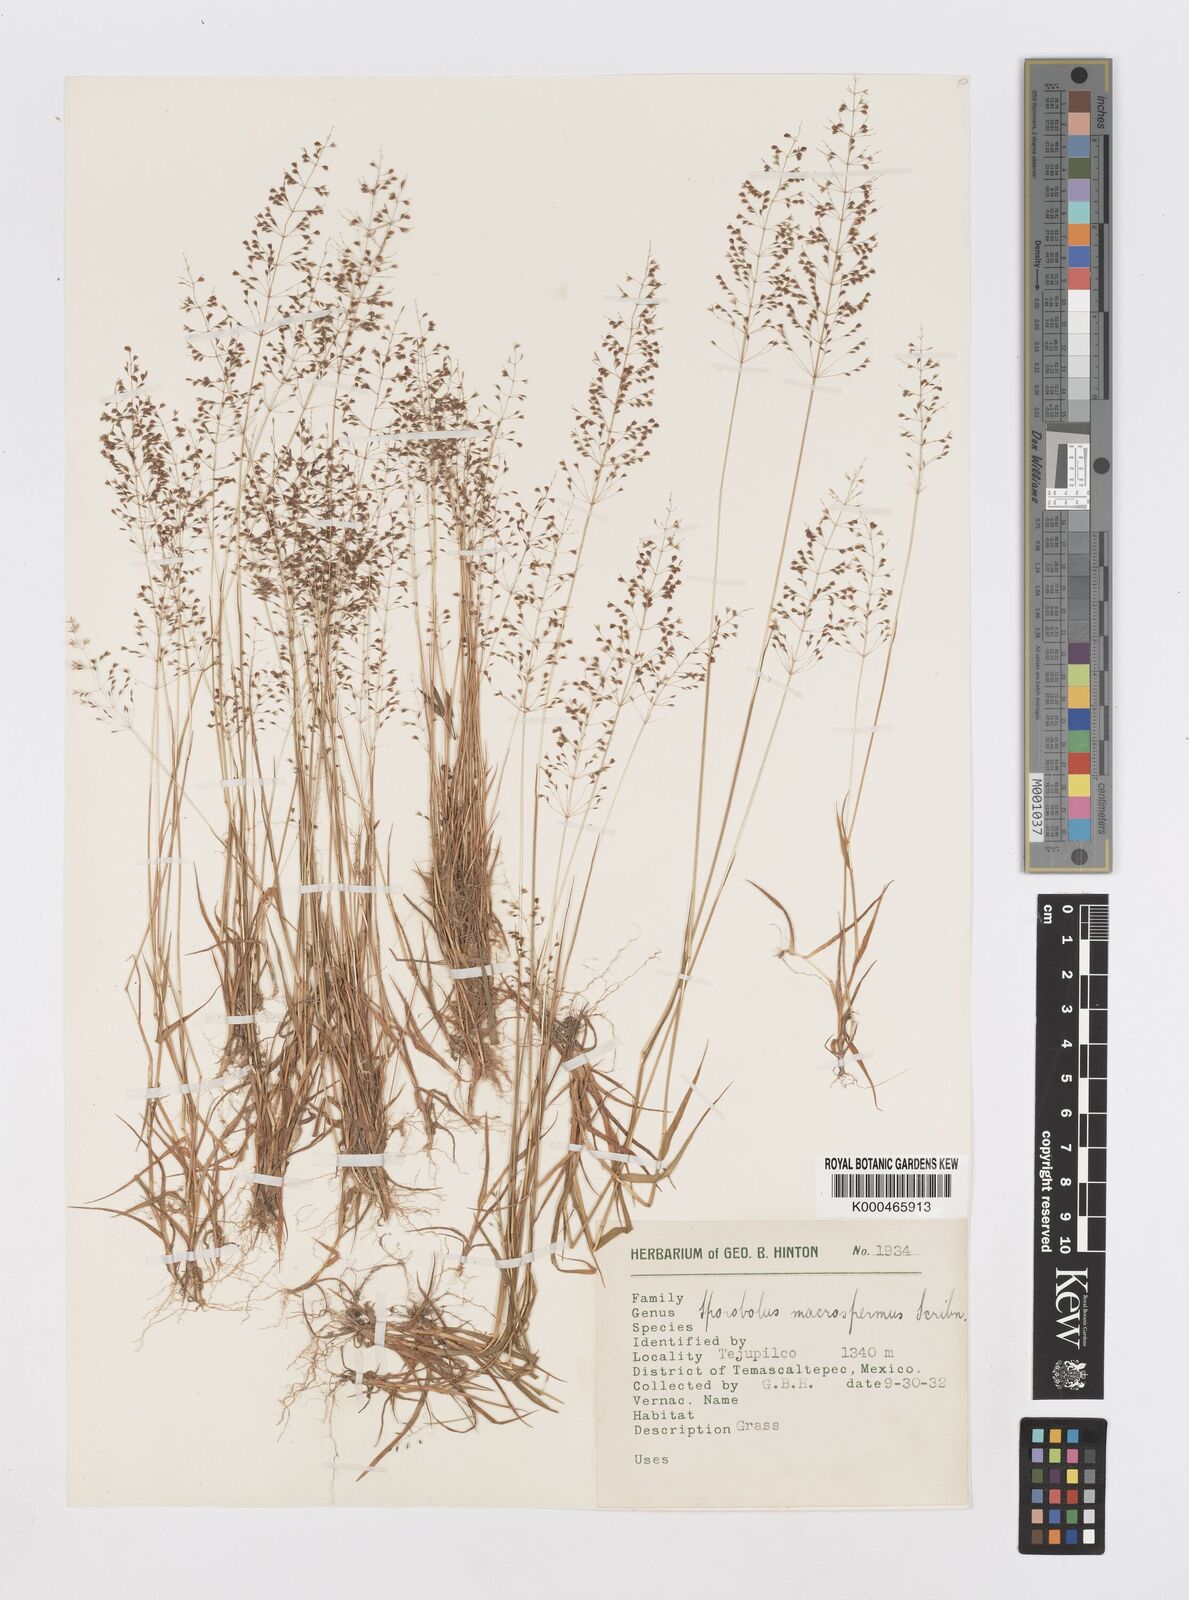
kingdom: Plantae
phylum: Tracheophyta
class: Liliopsida
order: Poales
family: Poaceae
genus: Sporobolus
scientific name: Sporobolus paniculatus
